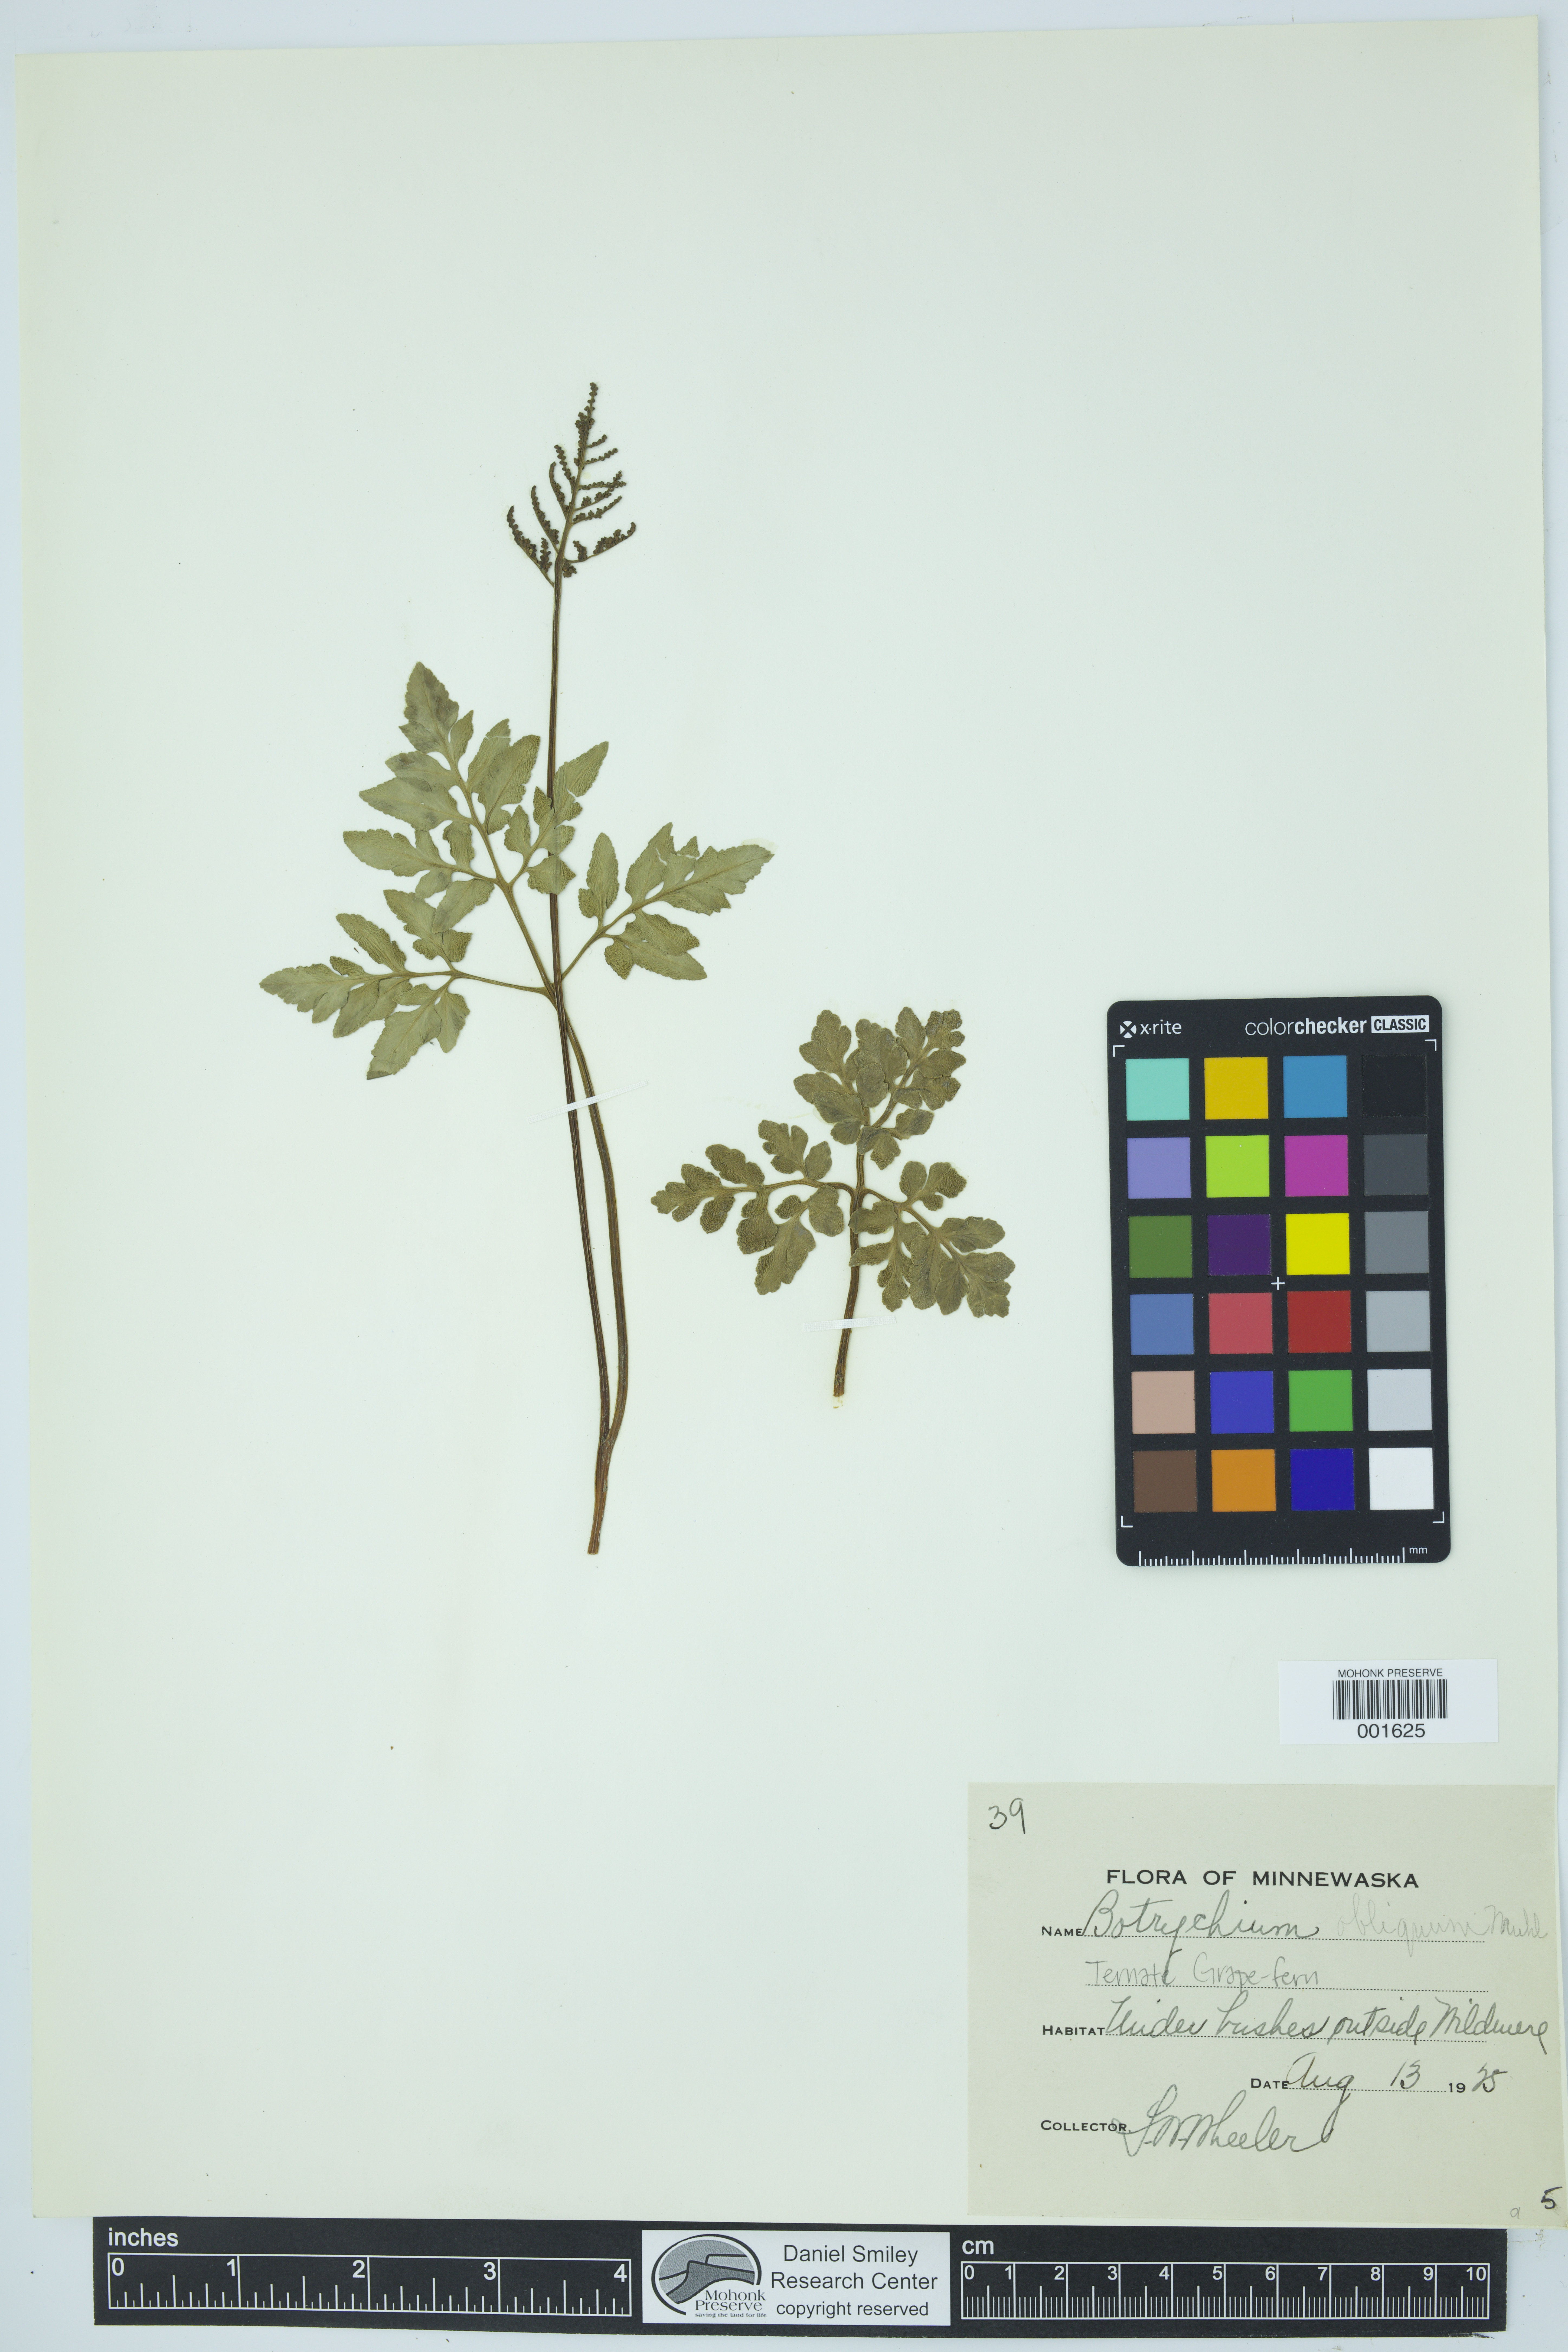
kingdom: Plantae
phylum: Tracheophyta
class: Polypodiopsida
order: Ophioglossales
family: Ophioglossaceae
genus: Sceptridium
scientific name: Sceptridium dissectum
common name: Cut-leaved grapefern
